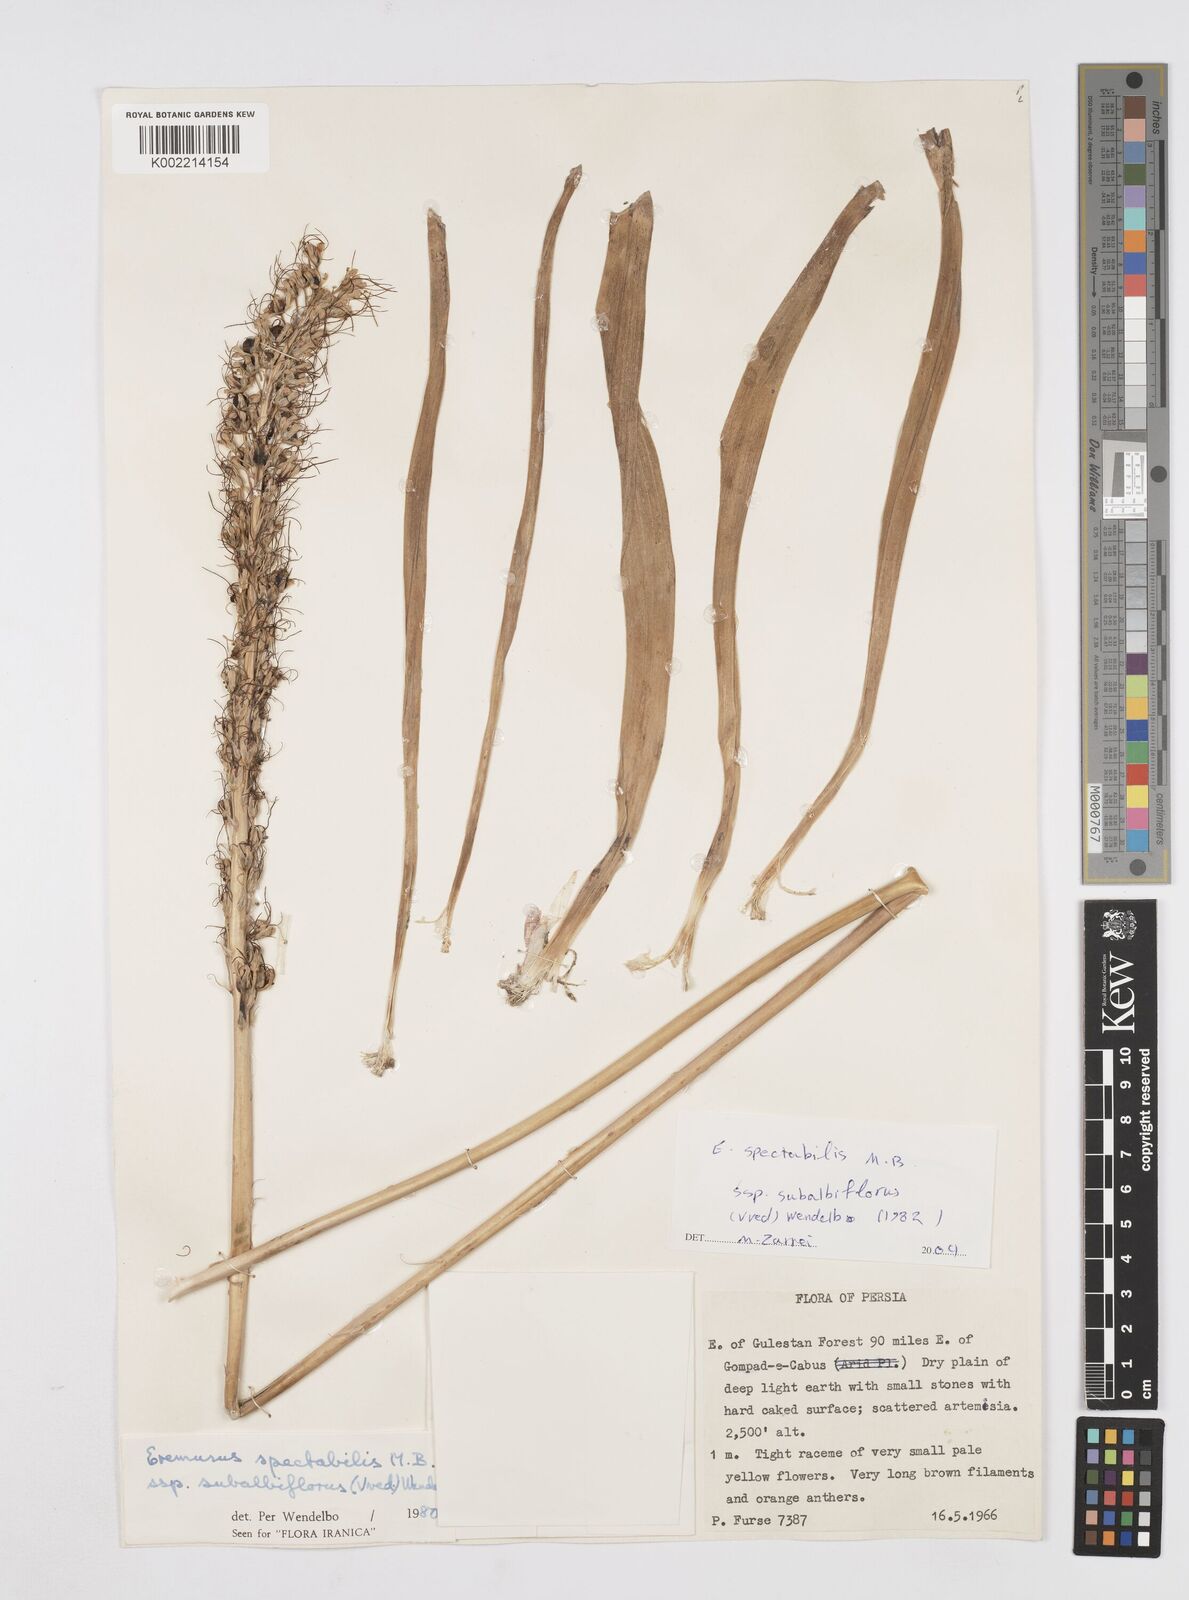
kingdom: Plantae
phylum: Tracheophyta
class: Liliopsida
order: Asparagales
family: Asphodelaceae
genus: Eremurus
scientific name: Eremurus subalbiflorus
